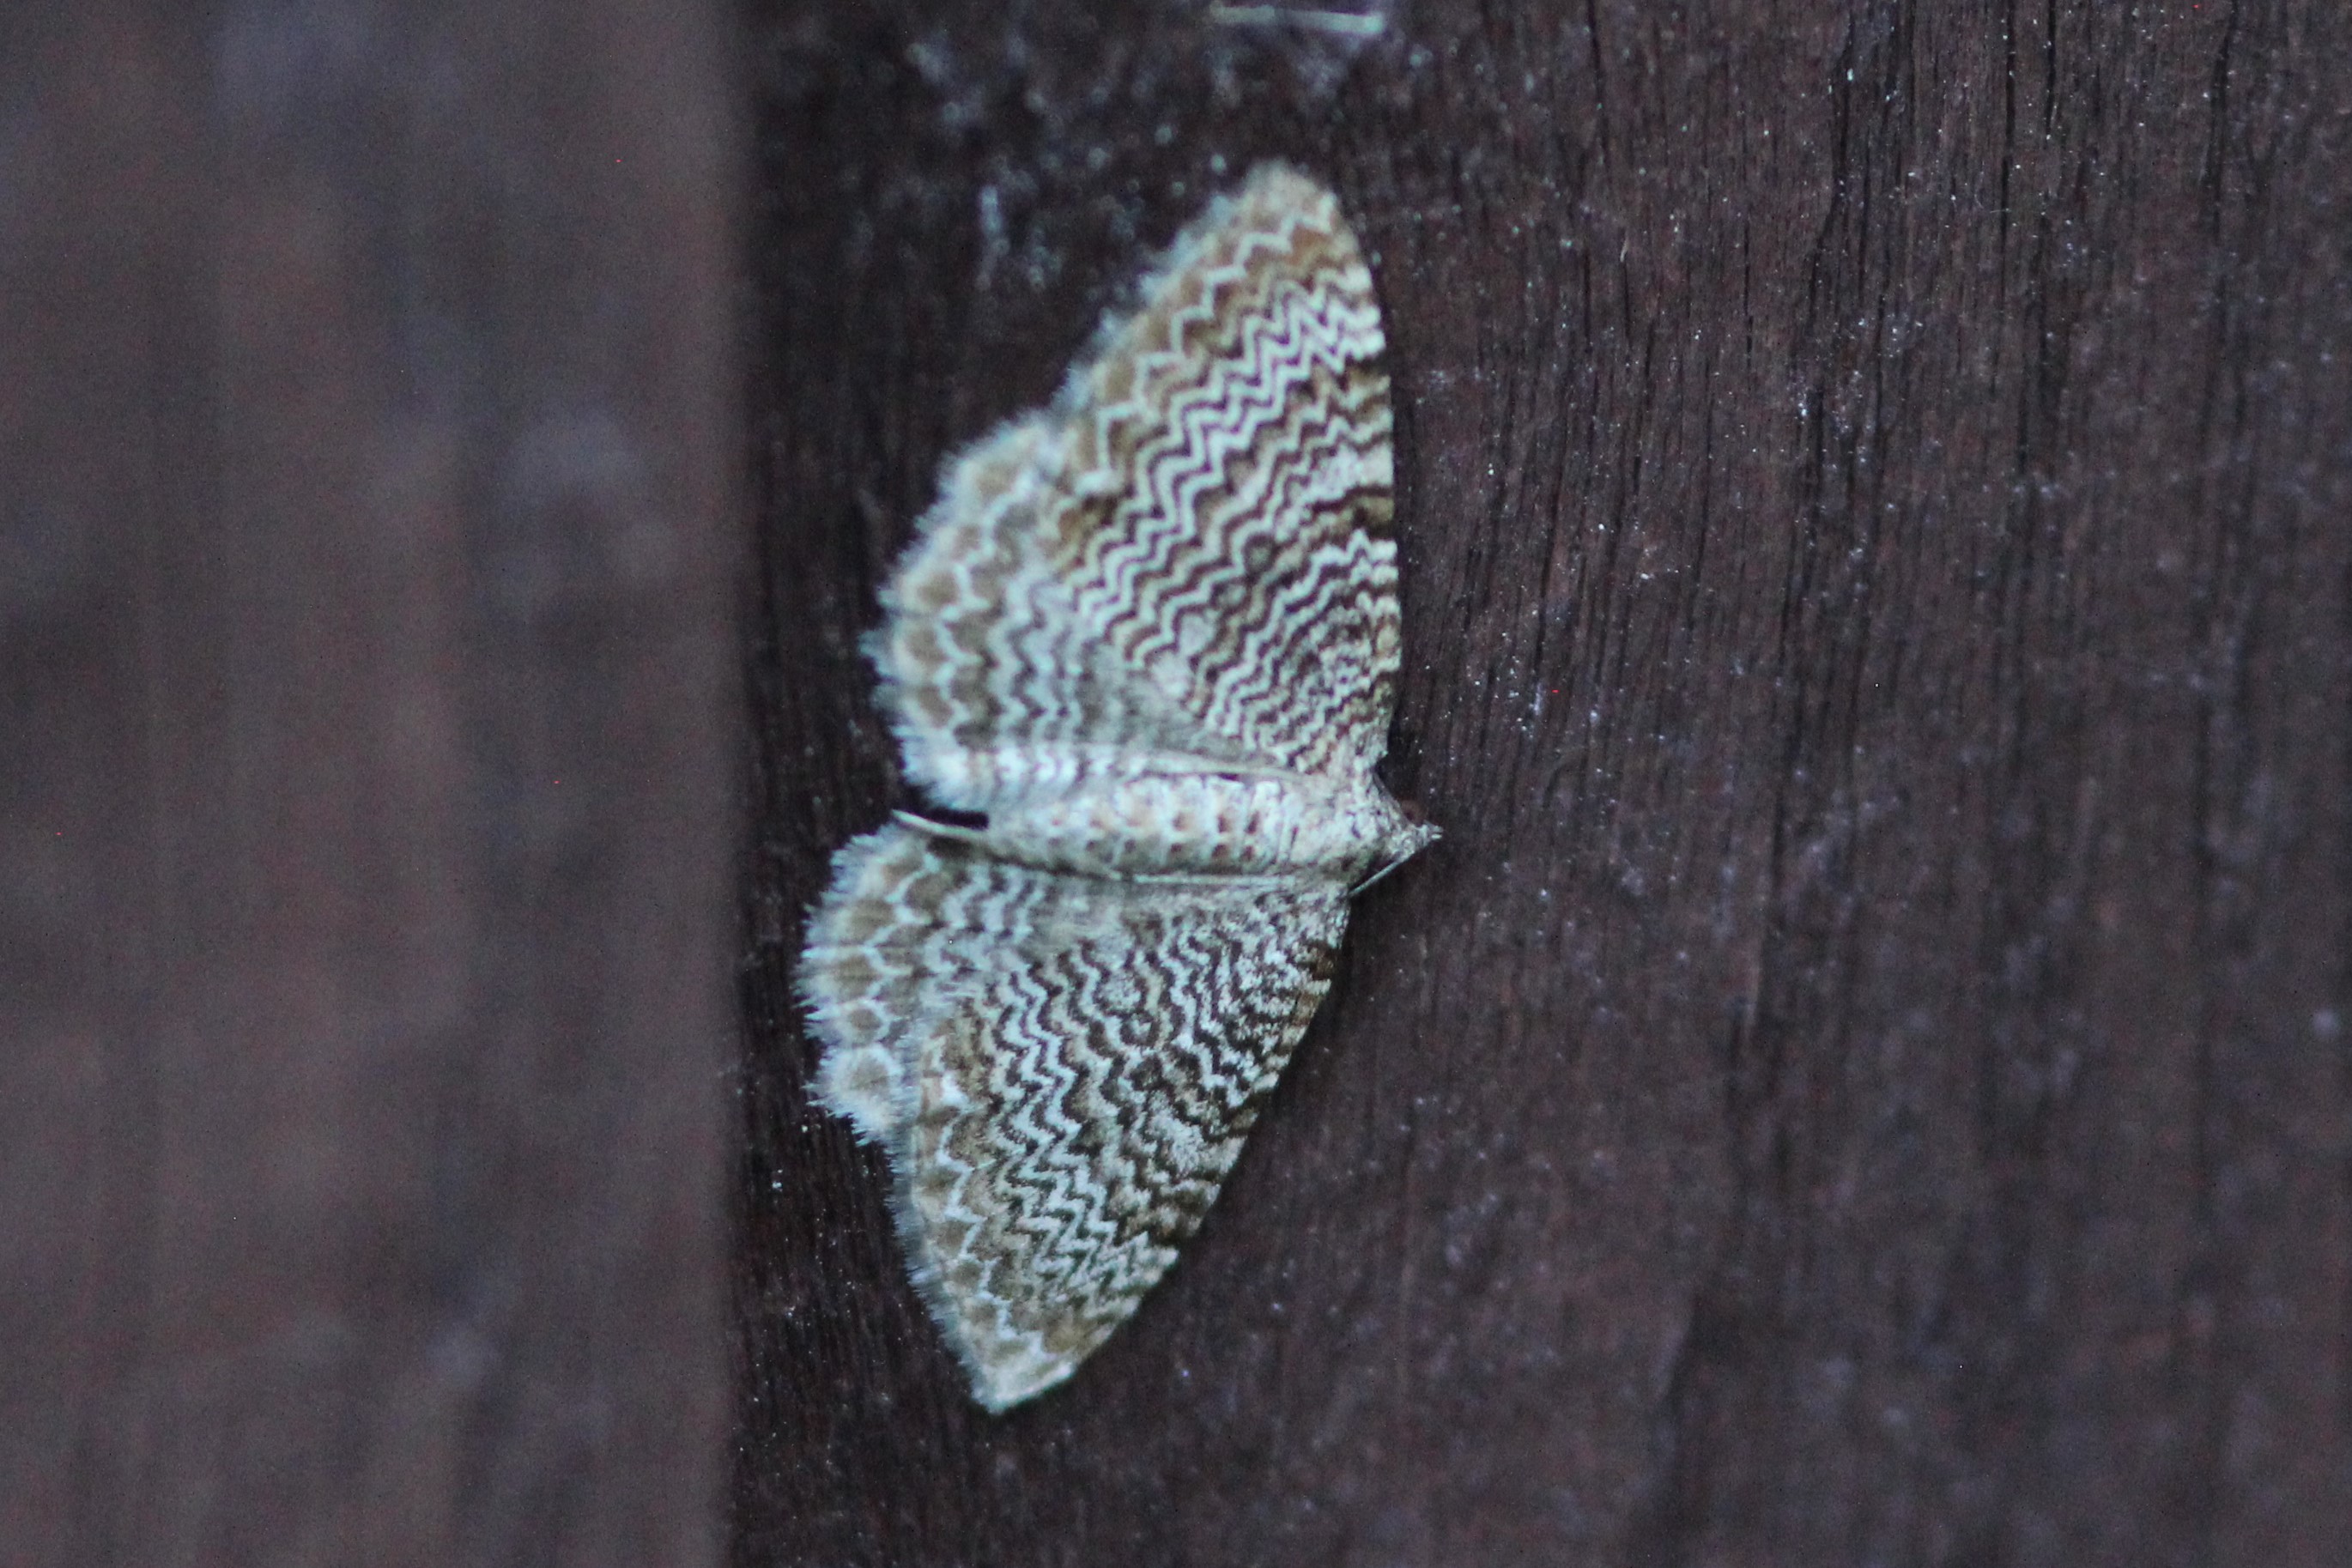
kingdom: Animalia
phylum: Arthropoda
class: Insecta
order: Lepidoptera
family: Geometridae
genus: Rheumaptera
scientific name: Rheumaptera undulata
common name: Scallop shell
